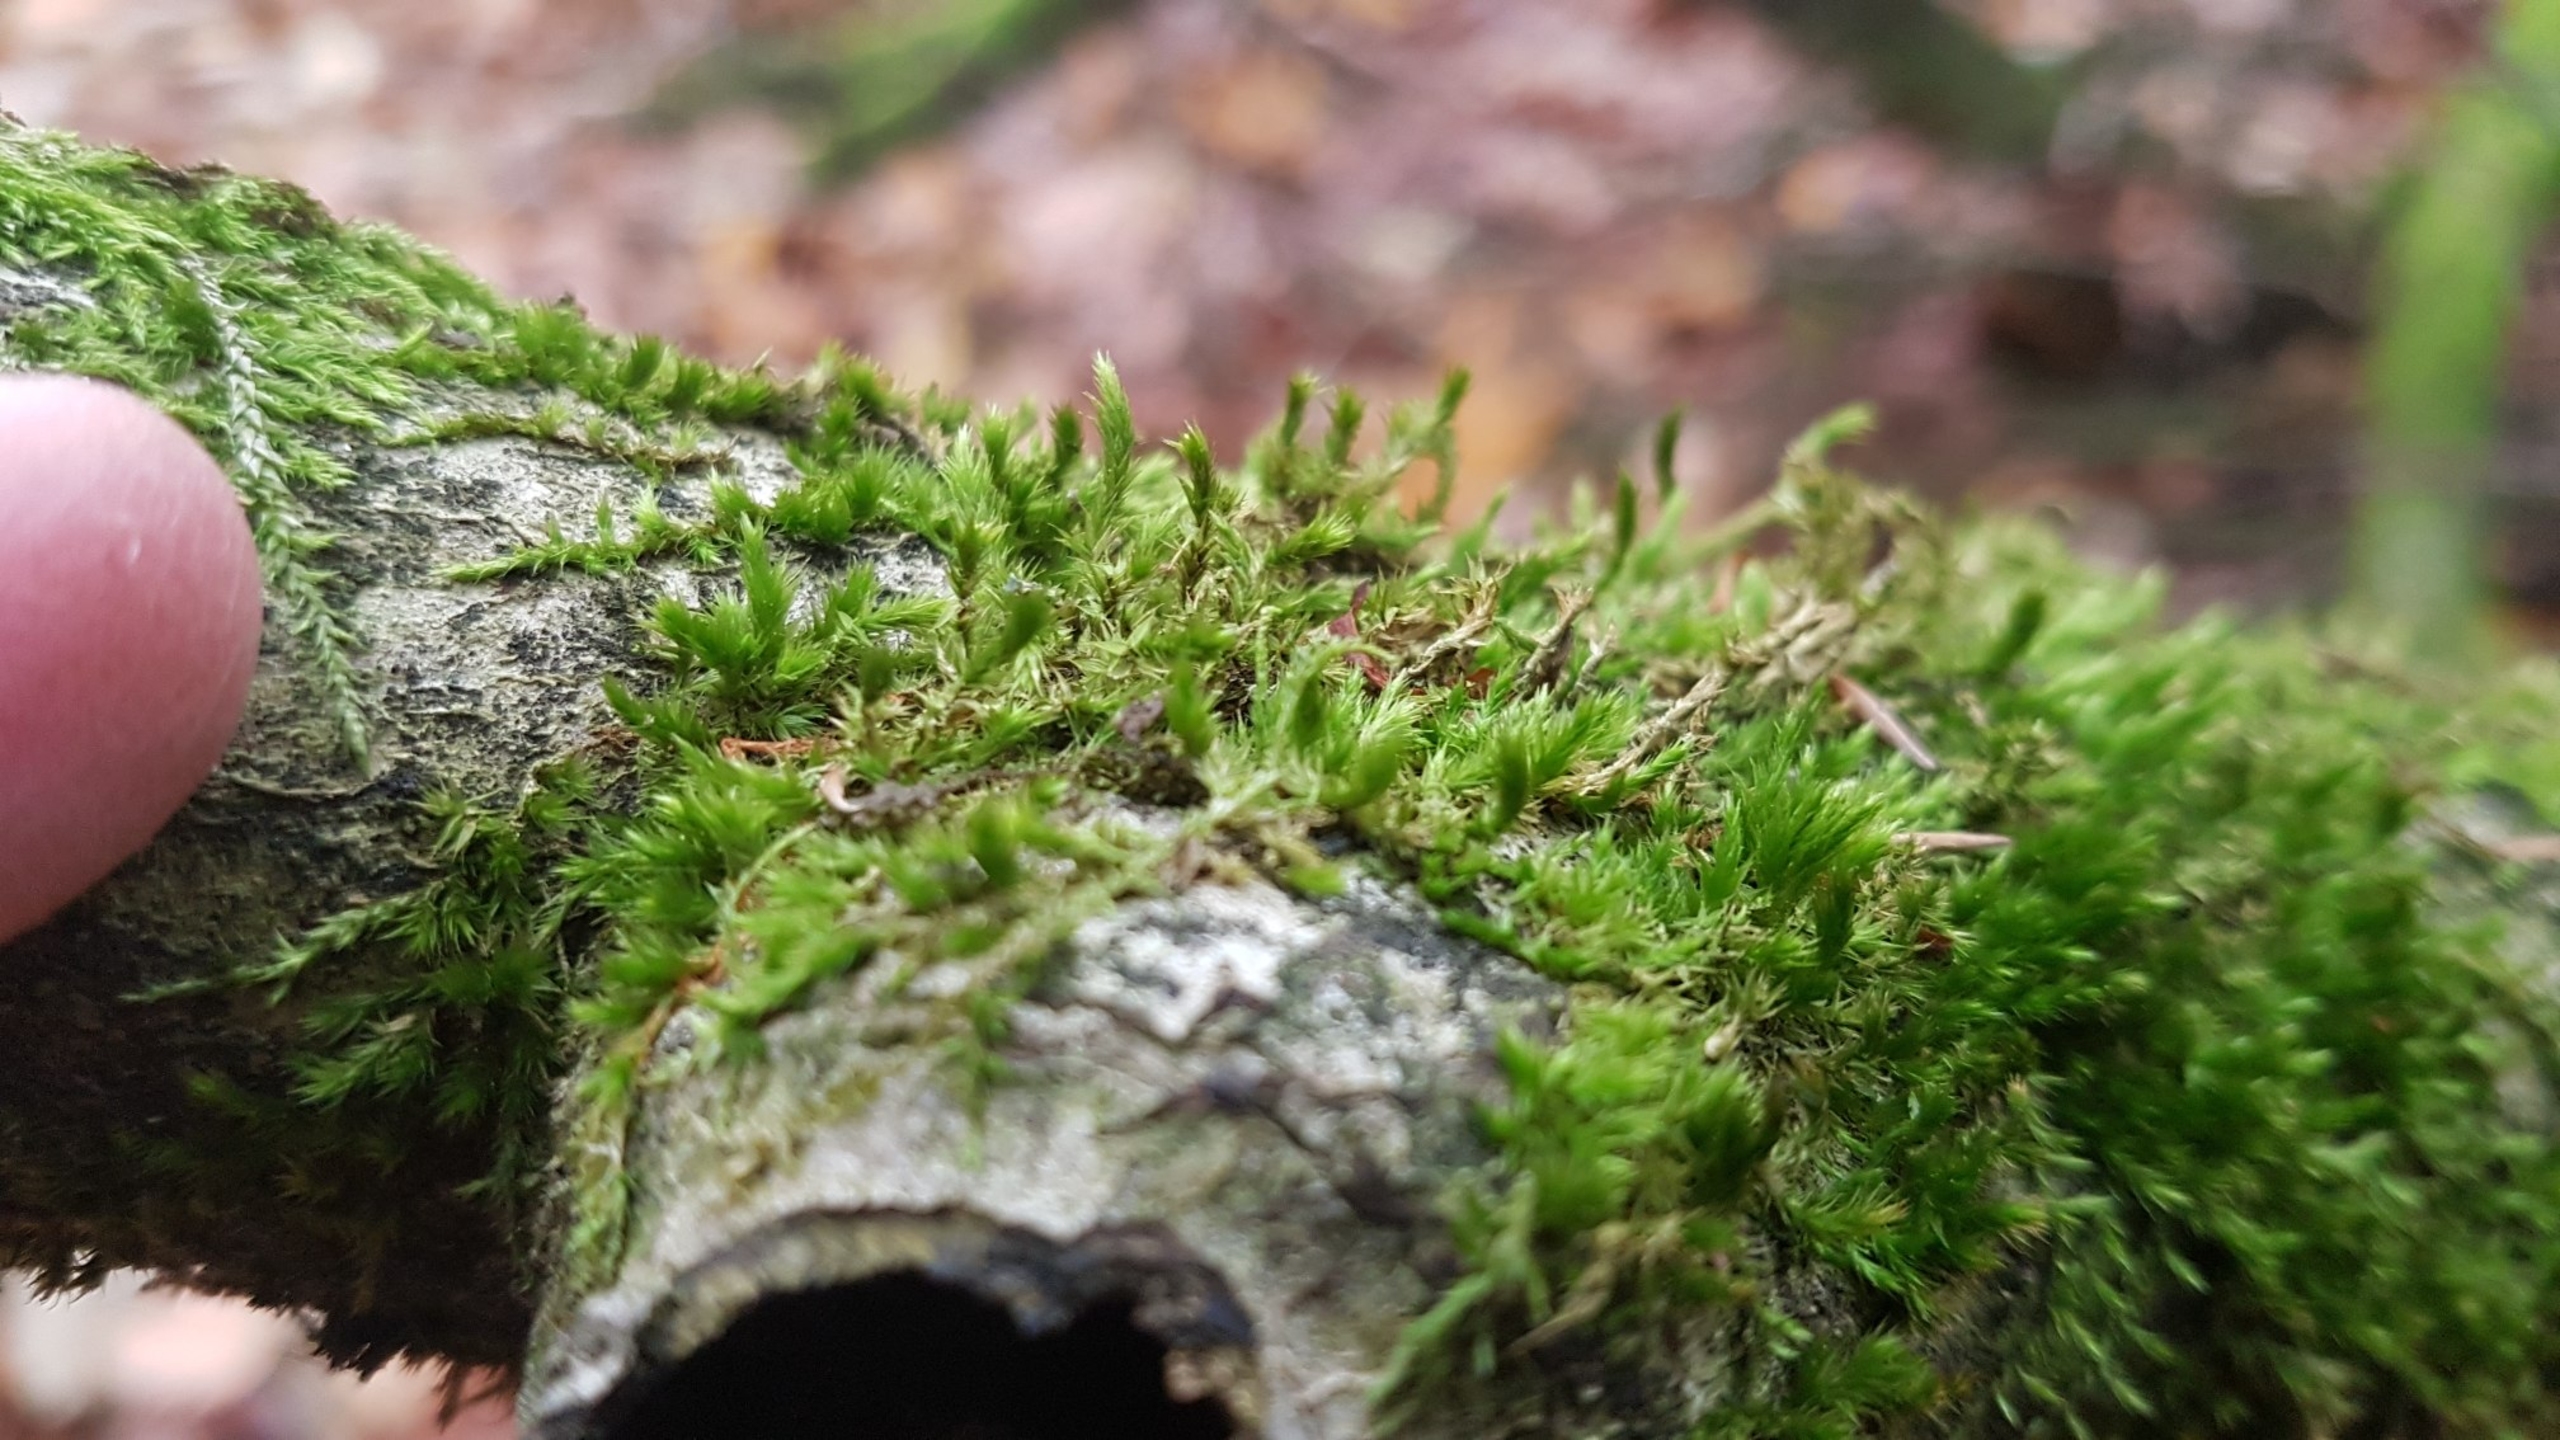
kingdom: Plantae
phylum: Bryophyta
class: Bryopsida
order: Hypnales
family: Leucodontaceae
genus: Leucodon
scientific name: Leucodon sciuroides
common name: Egernhale-buemos
